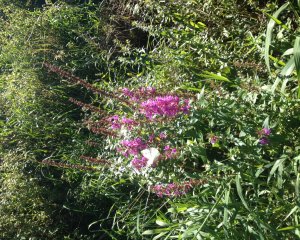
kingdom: Animalia
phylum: Arthropoda
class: Insecta
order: Lepidoptera
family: Pieridae
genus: Pieris
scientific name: Pieris rapae
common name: Cabbage White
